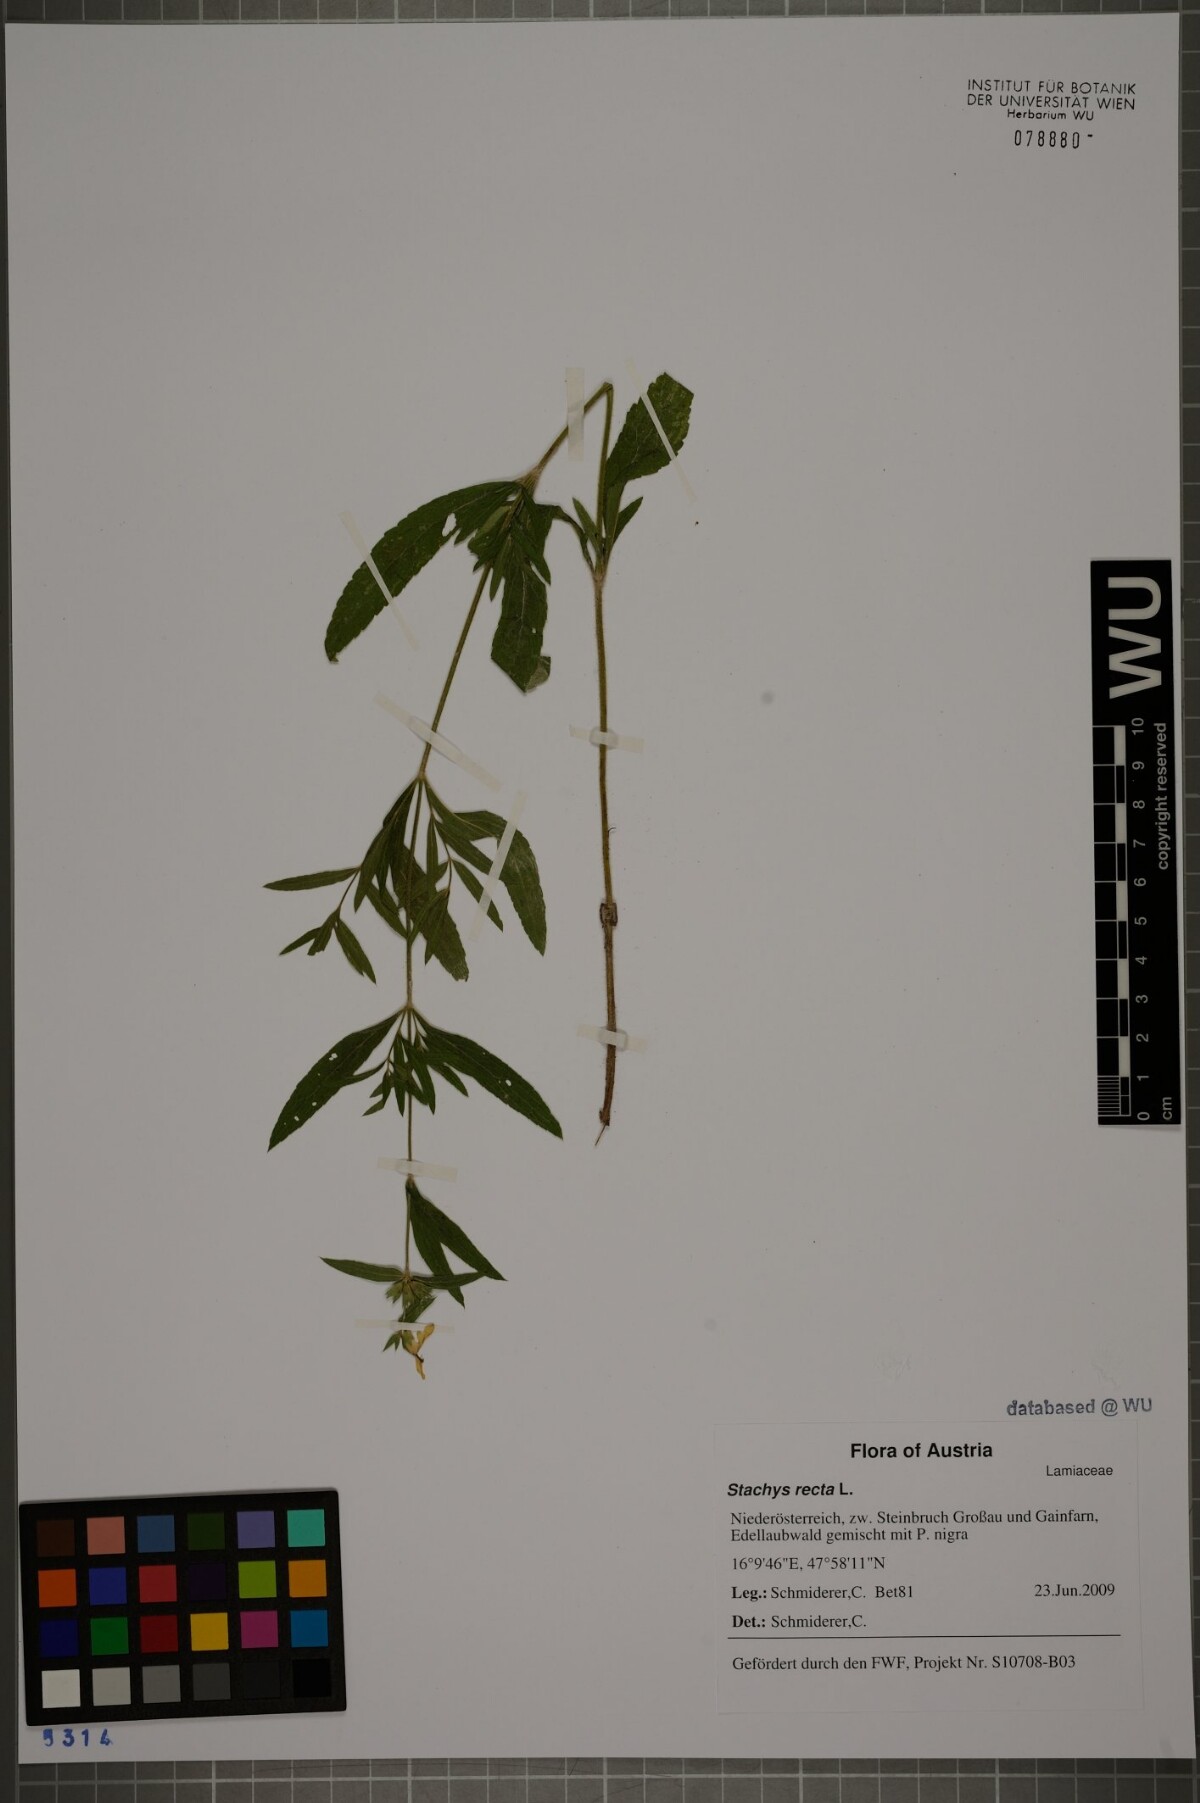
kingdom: Plantae
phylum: Tracheophyta
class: Magnoliopsida
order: Lamiales
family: Lamiaceae
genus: Stachys
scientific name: Stachys recta
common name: Perennial yellow-woundwort
